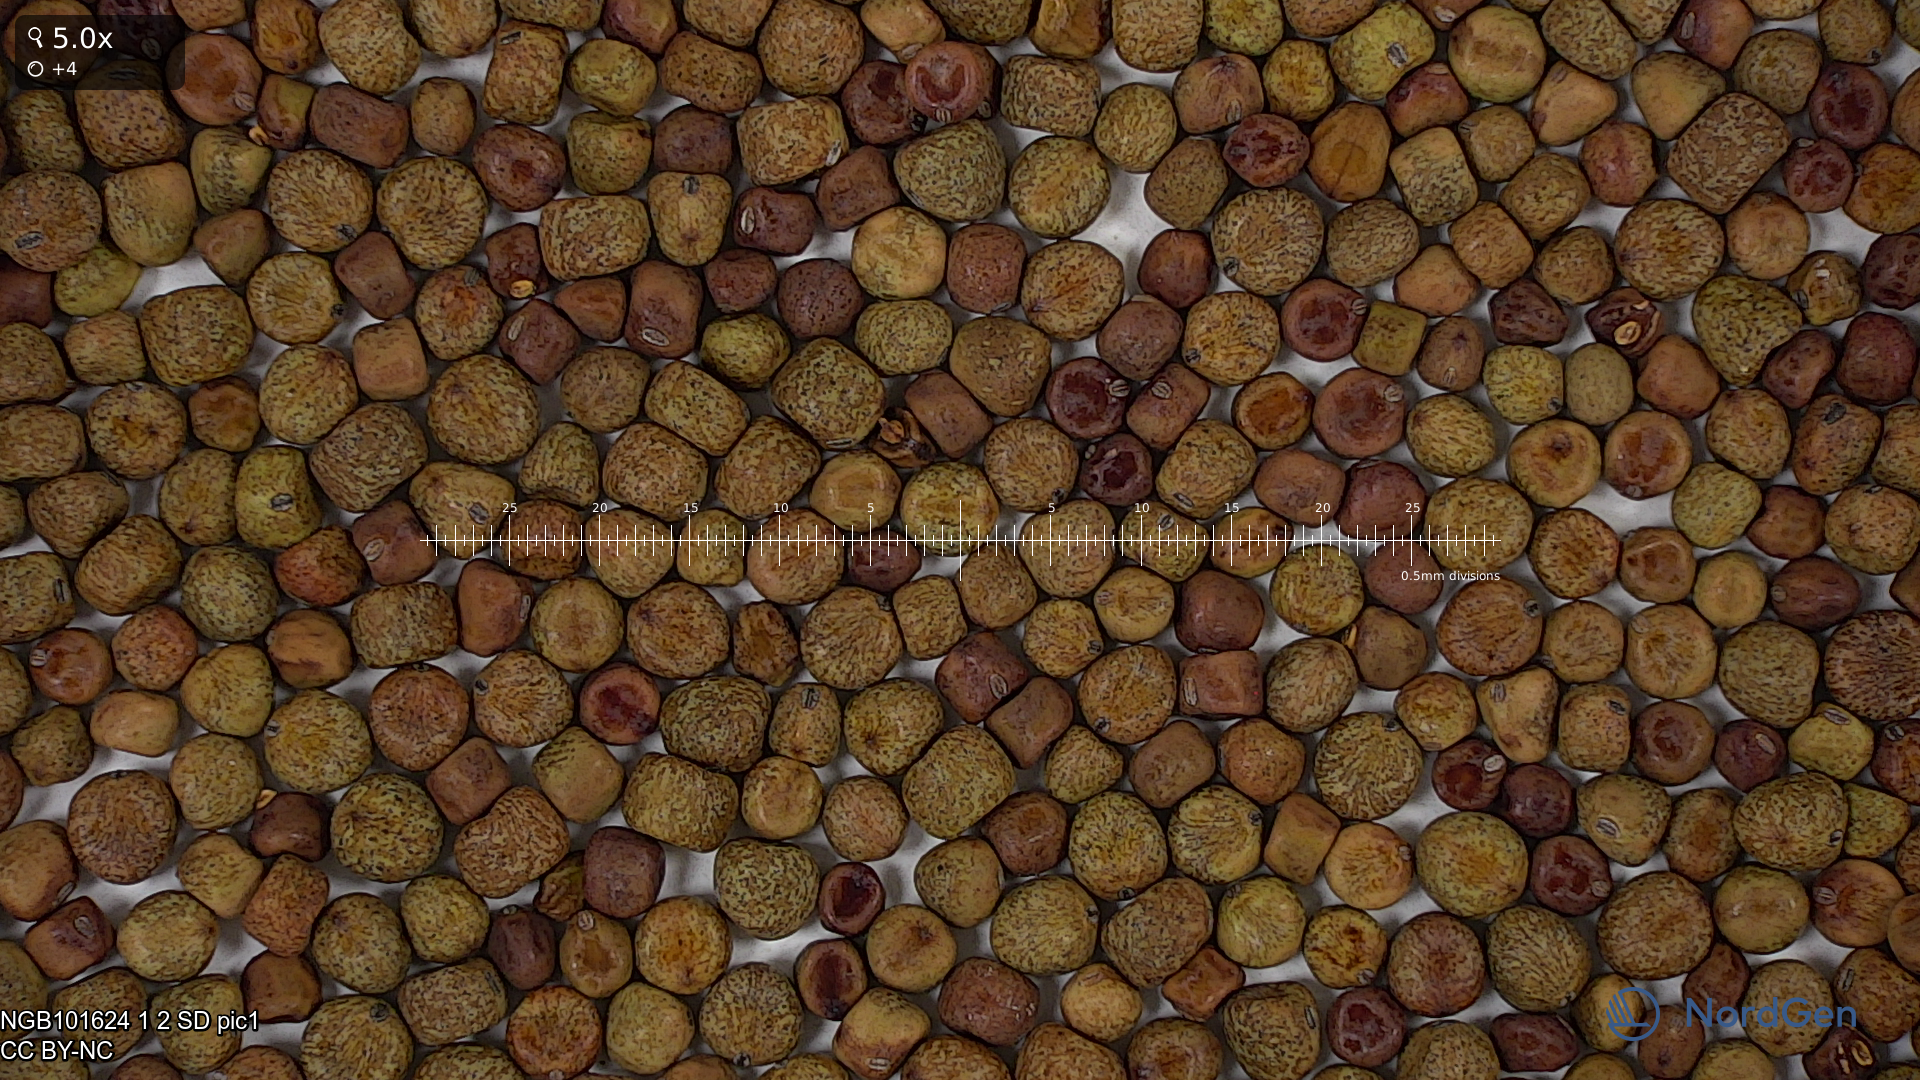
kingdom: Plantae
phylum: Tracheophyta
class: Magnoliopsida
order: Fabales
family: Fabaceae
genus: Lathyrus
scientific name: Lathyrus oleraceus
